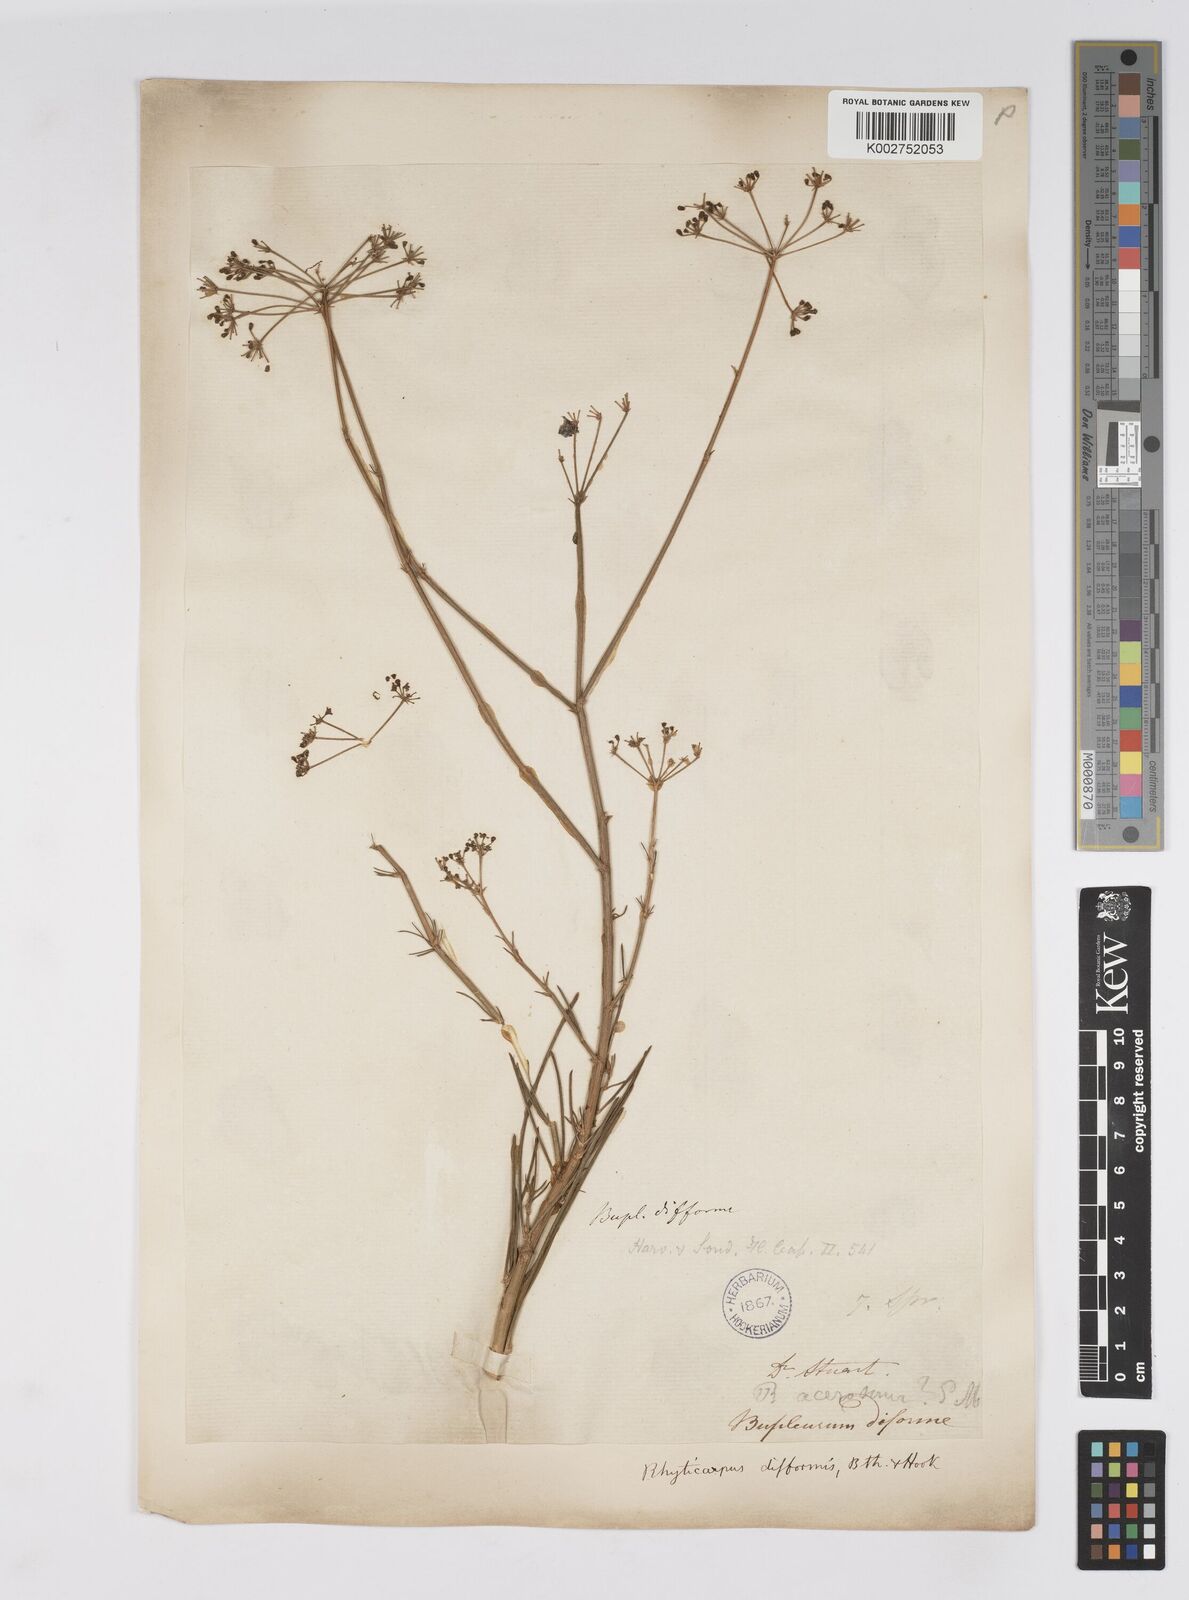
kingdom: Plantae
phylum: Tracheophyta
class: Magnoliopsida
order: Apiales
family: Apiaceae
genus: Anginon
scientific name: Anginon fruticosum
